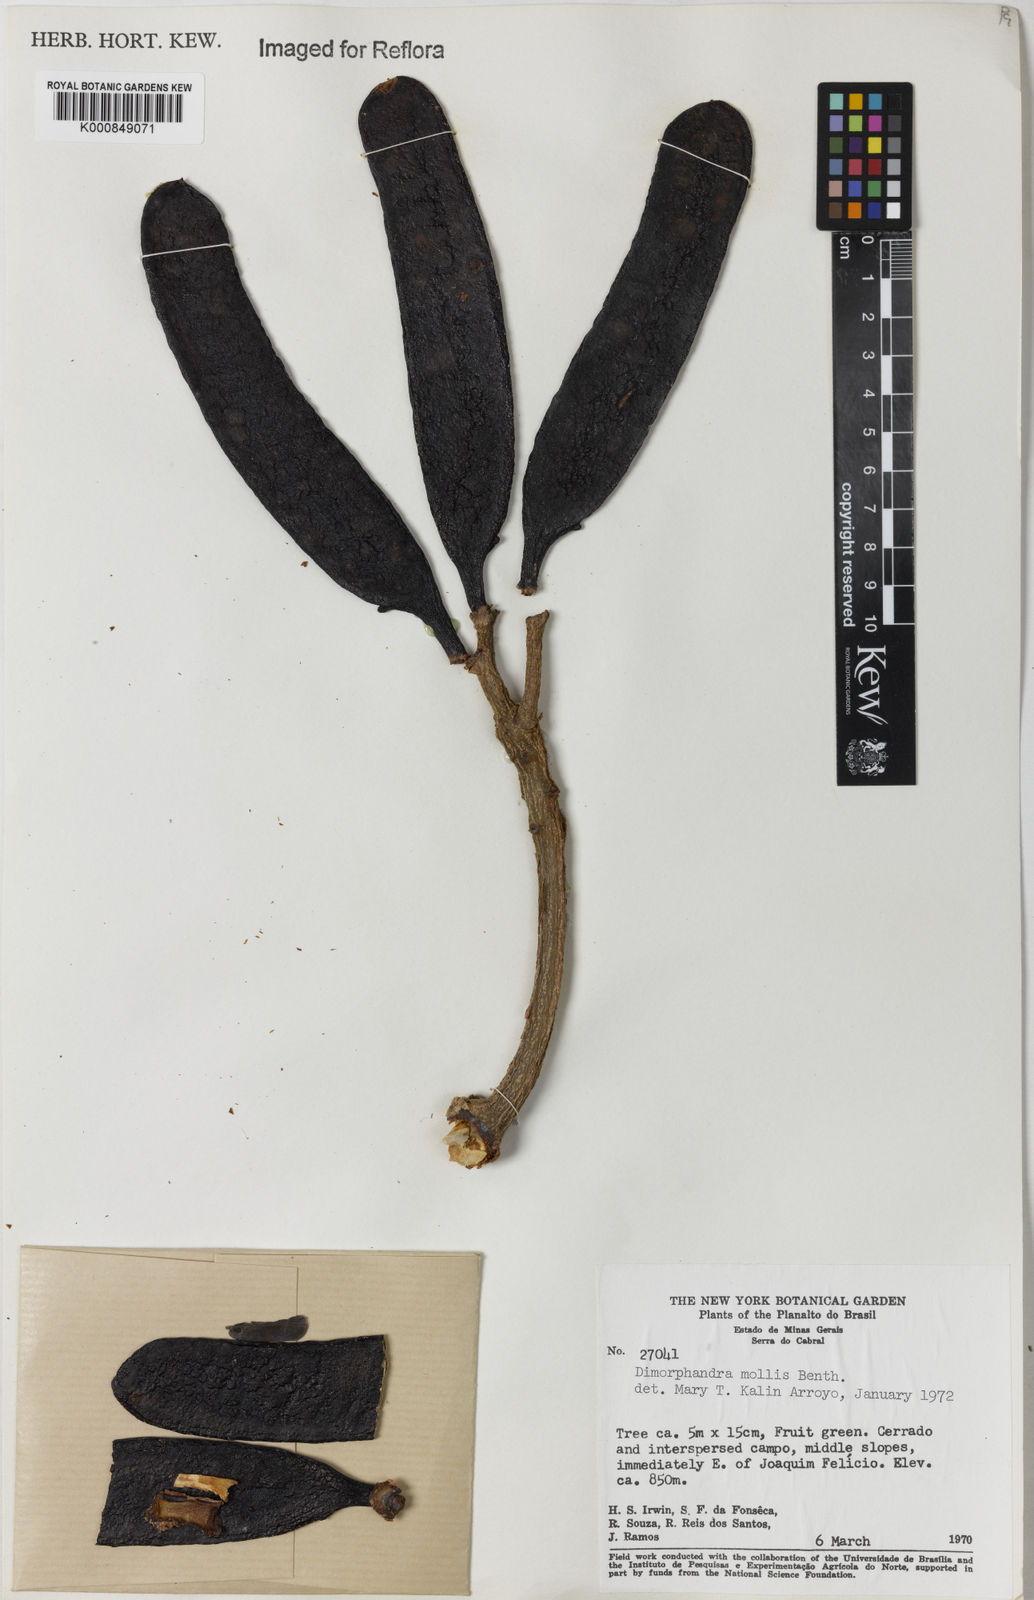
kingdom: Plantae
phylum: Tracheophyta
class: Magnoliopsida
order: Fabales
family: Fabaceae
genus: Dimorphandra
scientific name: Dimorphandra mollis
